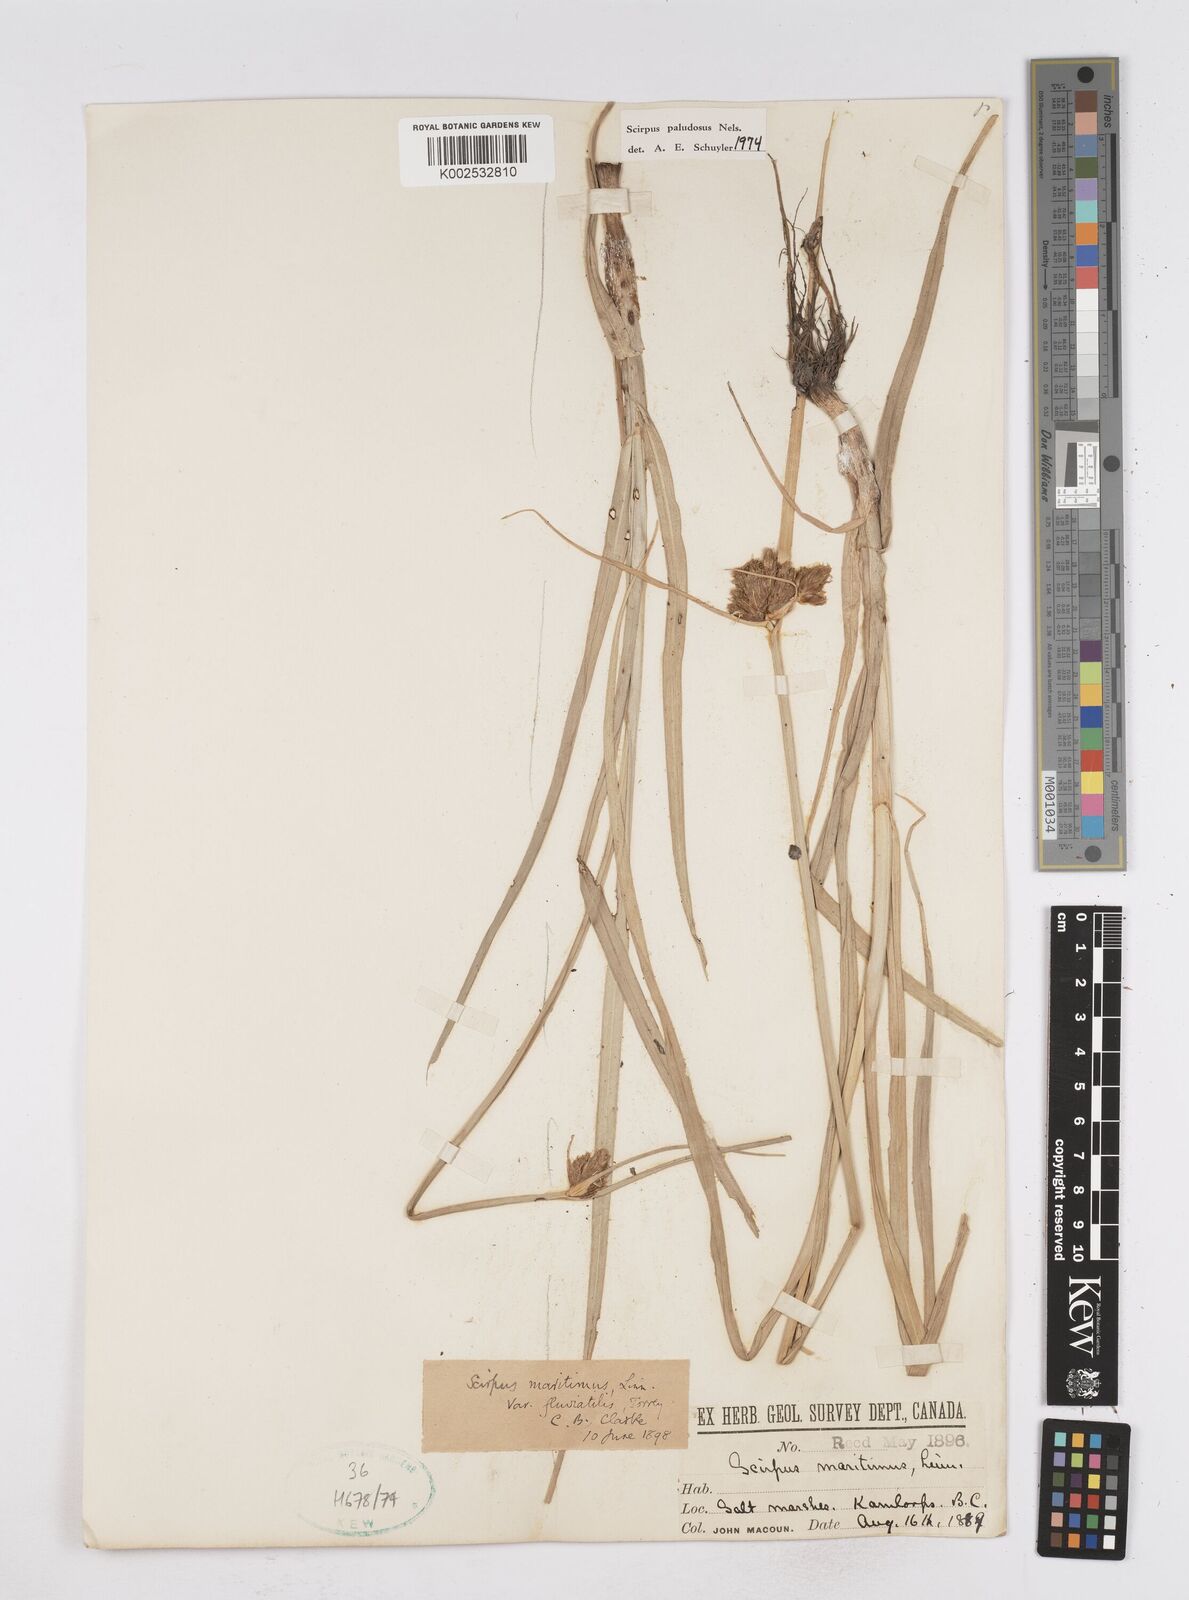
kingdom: Plantae
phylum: Tracheophyta
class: Liliopsida
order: Poales
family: Cyperaceae
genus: Bolboschoenus
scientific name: Bolboschoenus maritimus
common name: Sea club-rush
